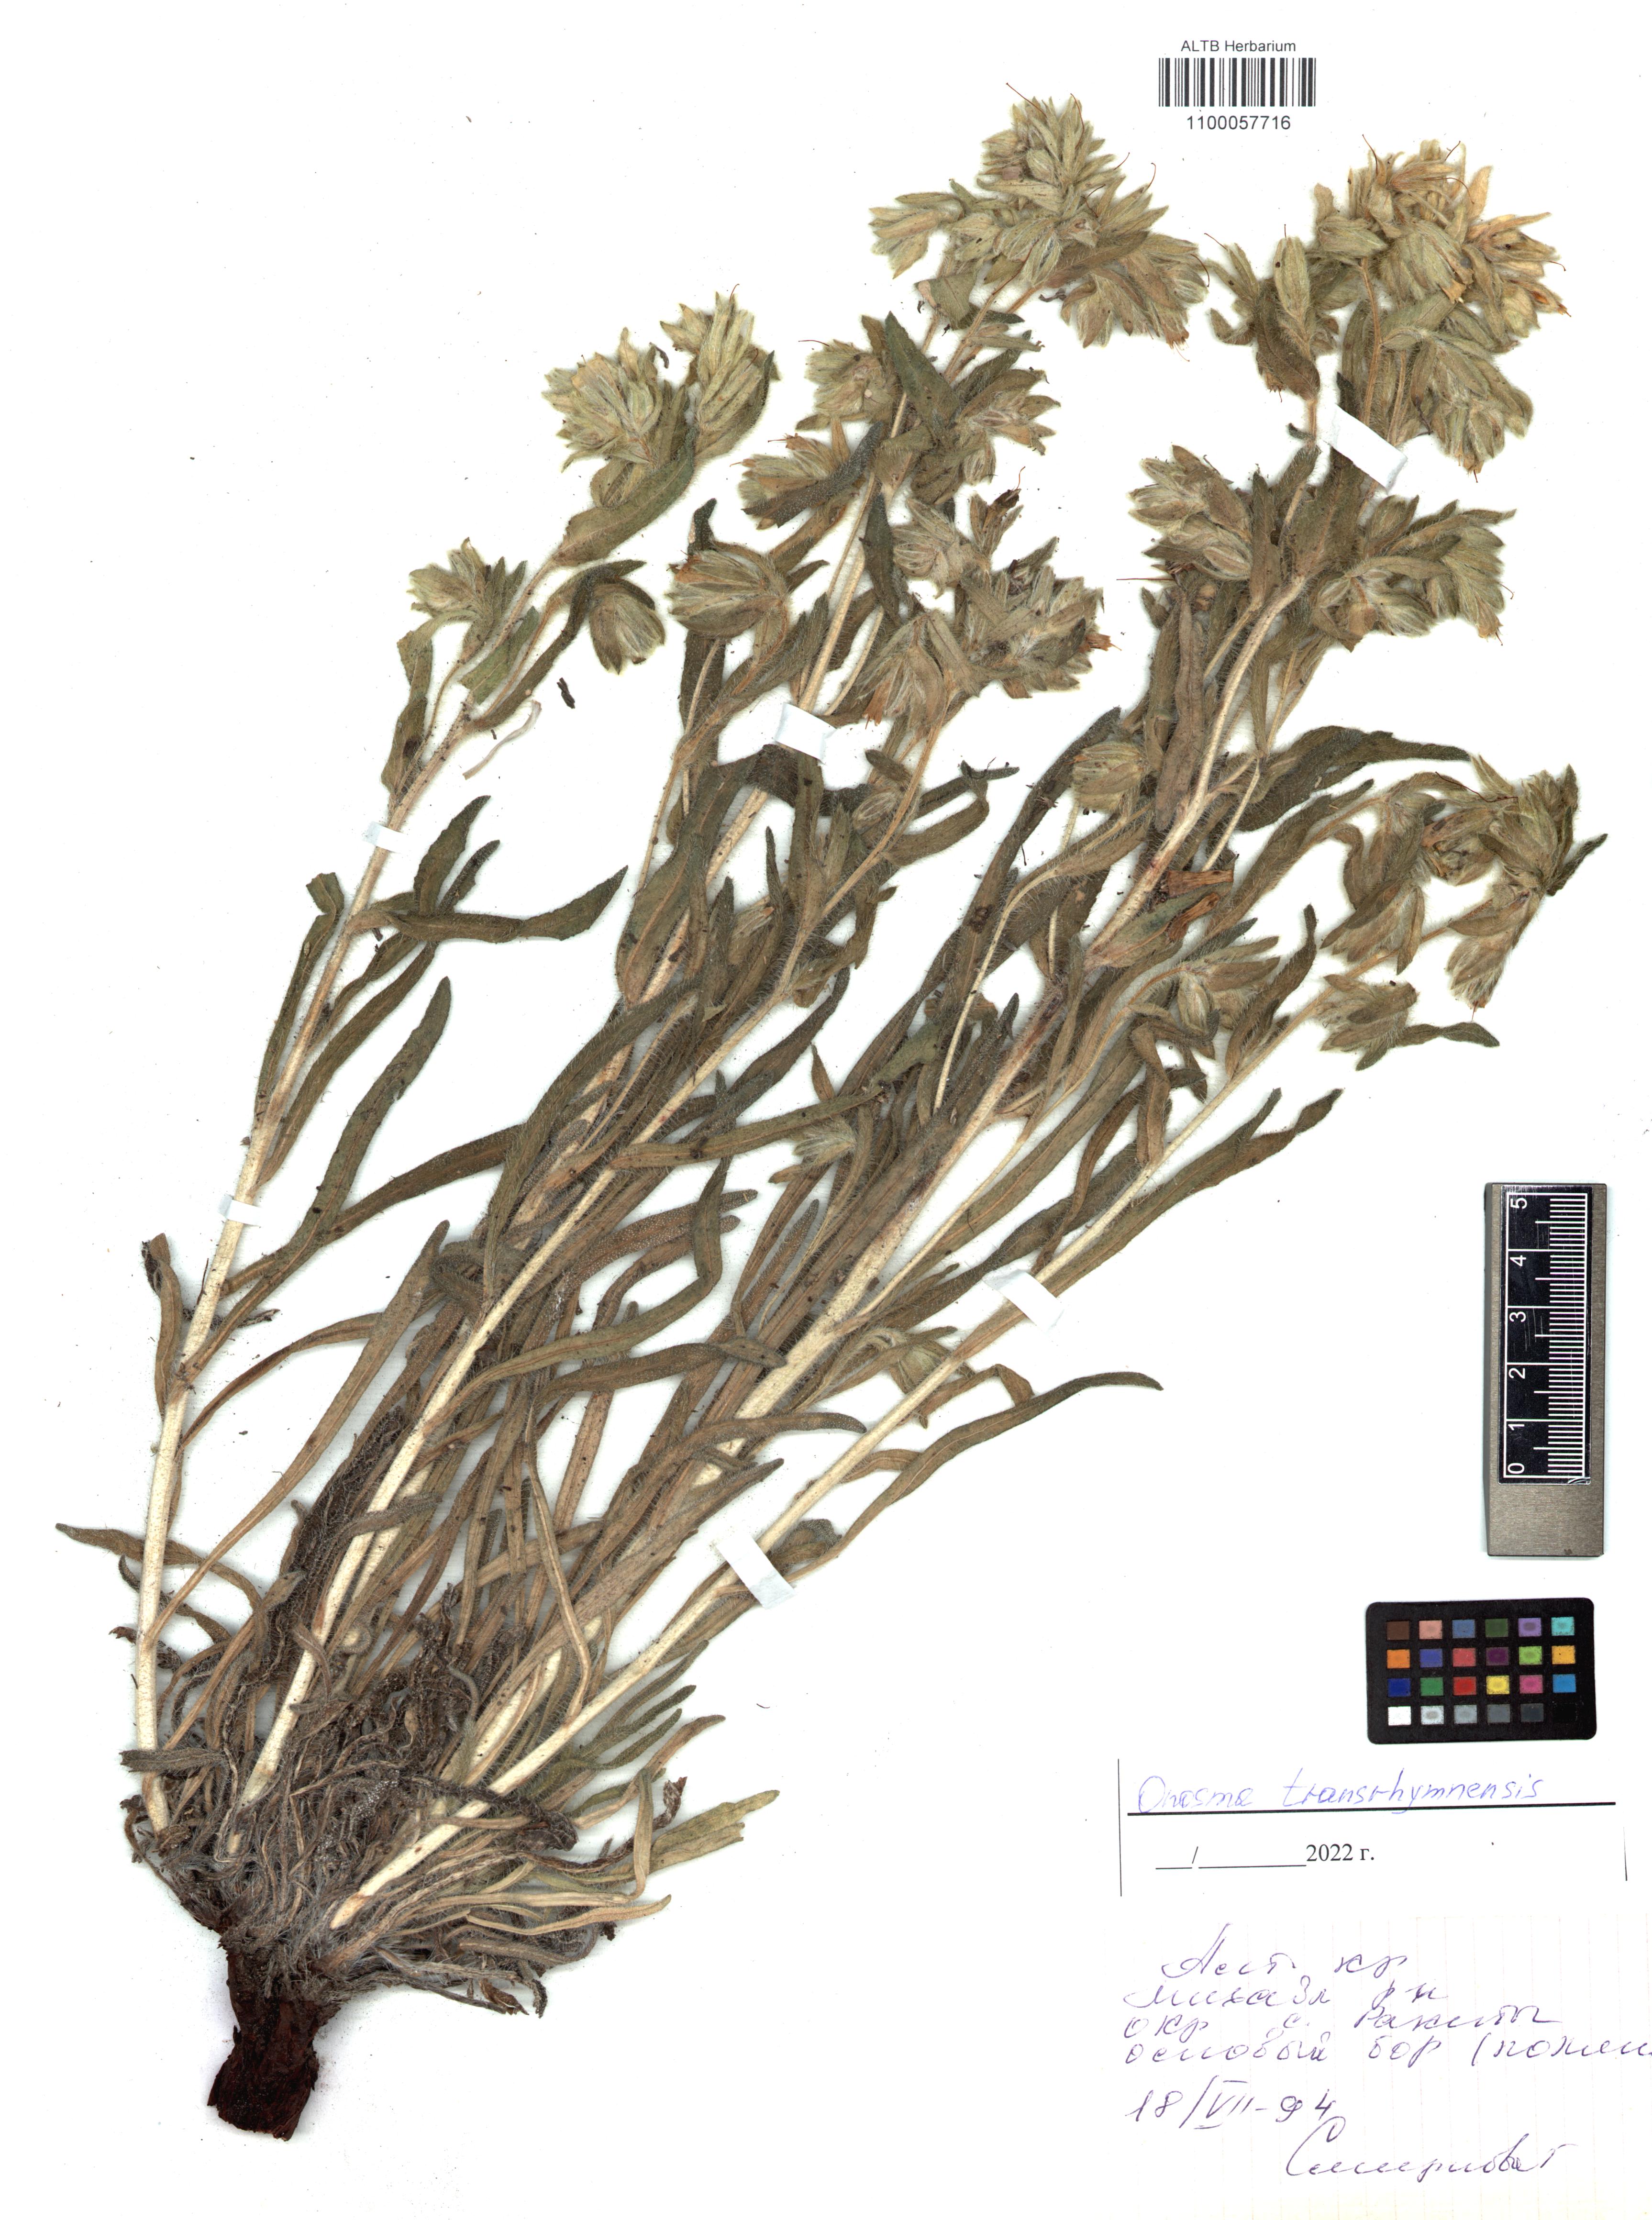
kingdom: Plantae
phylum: Tracheophyta
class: Magnoliopsida
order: Boraginales
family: Boraginaceae
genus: Onosma
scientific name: Onosma simplicissima
